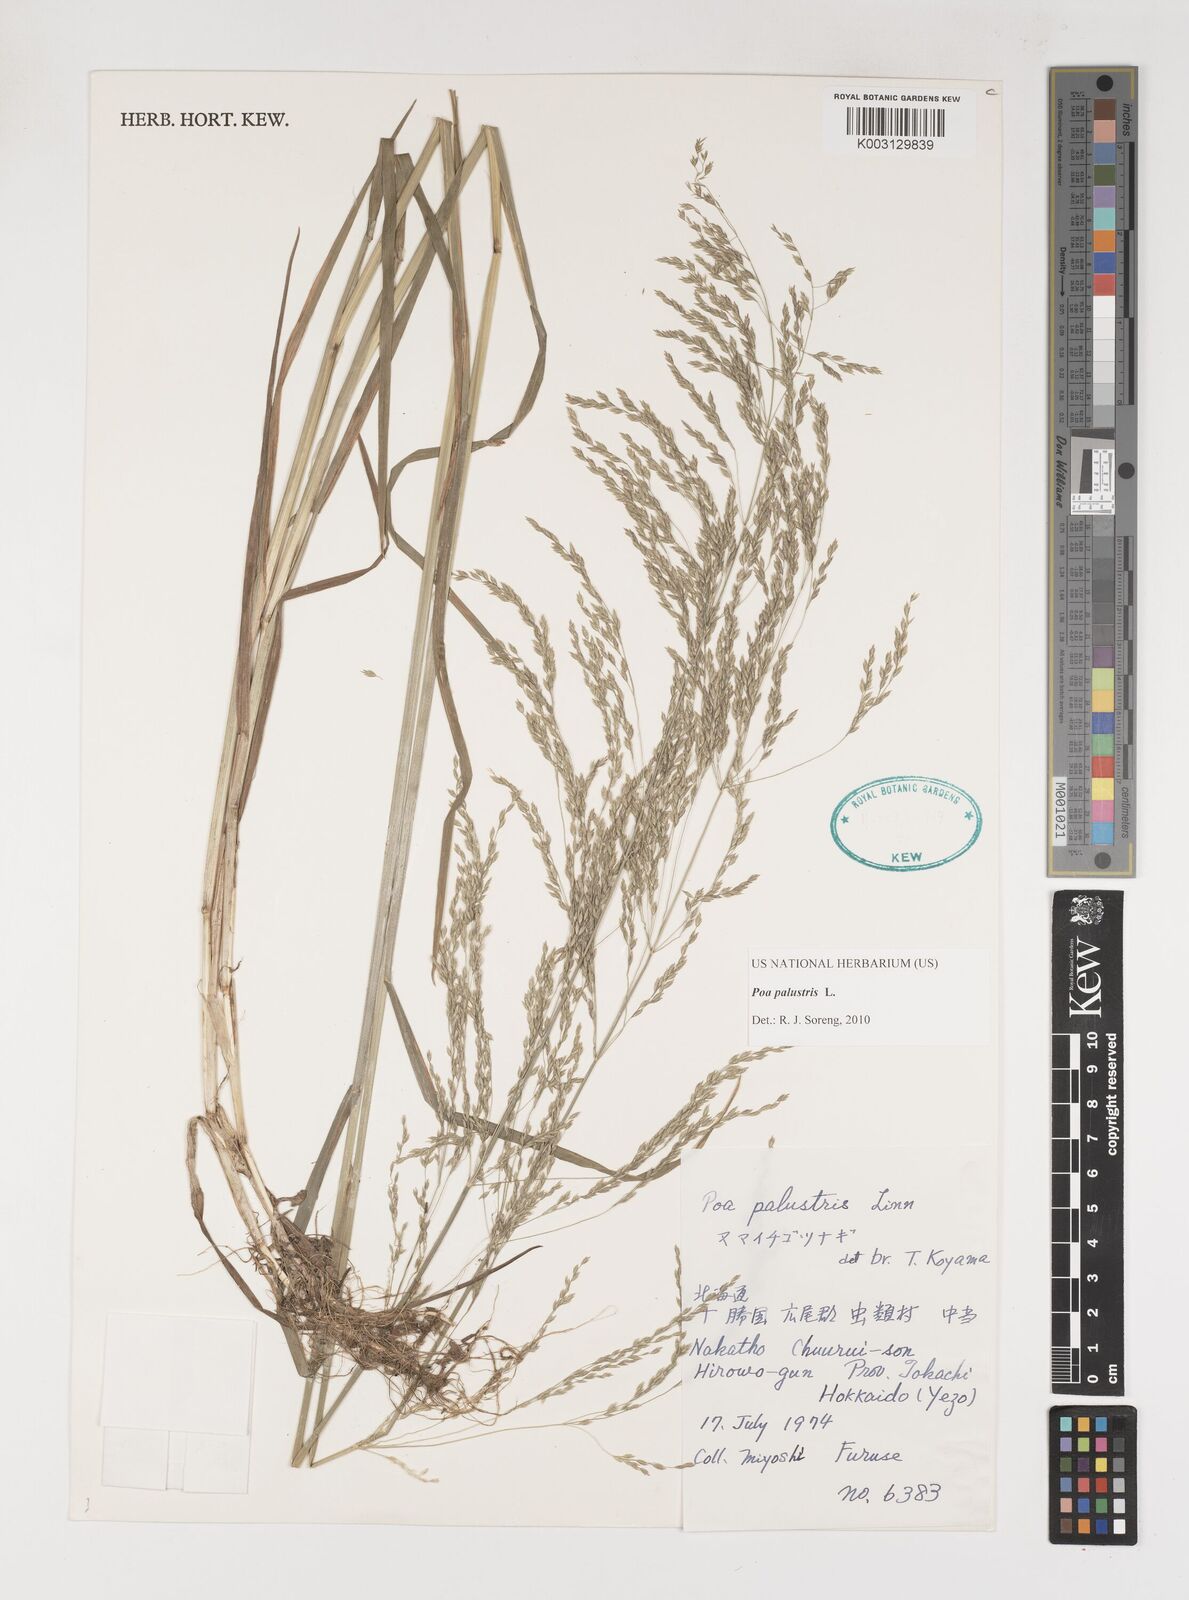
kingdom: Plantae
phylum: Tracheophyta
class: Liliopsida
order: Poales
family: Poaceae
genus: Poa
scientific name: Poa palustris
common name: Swamp meadow-grass
